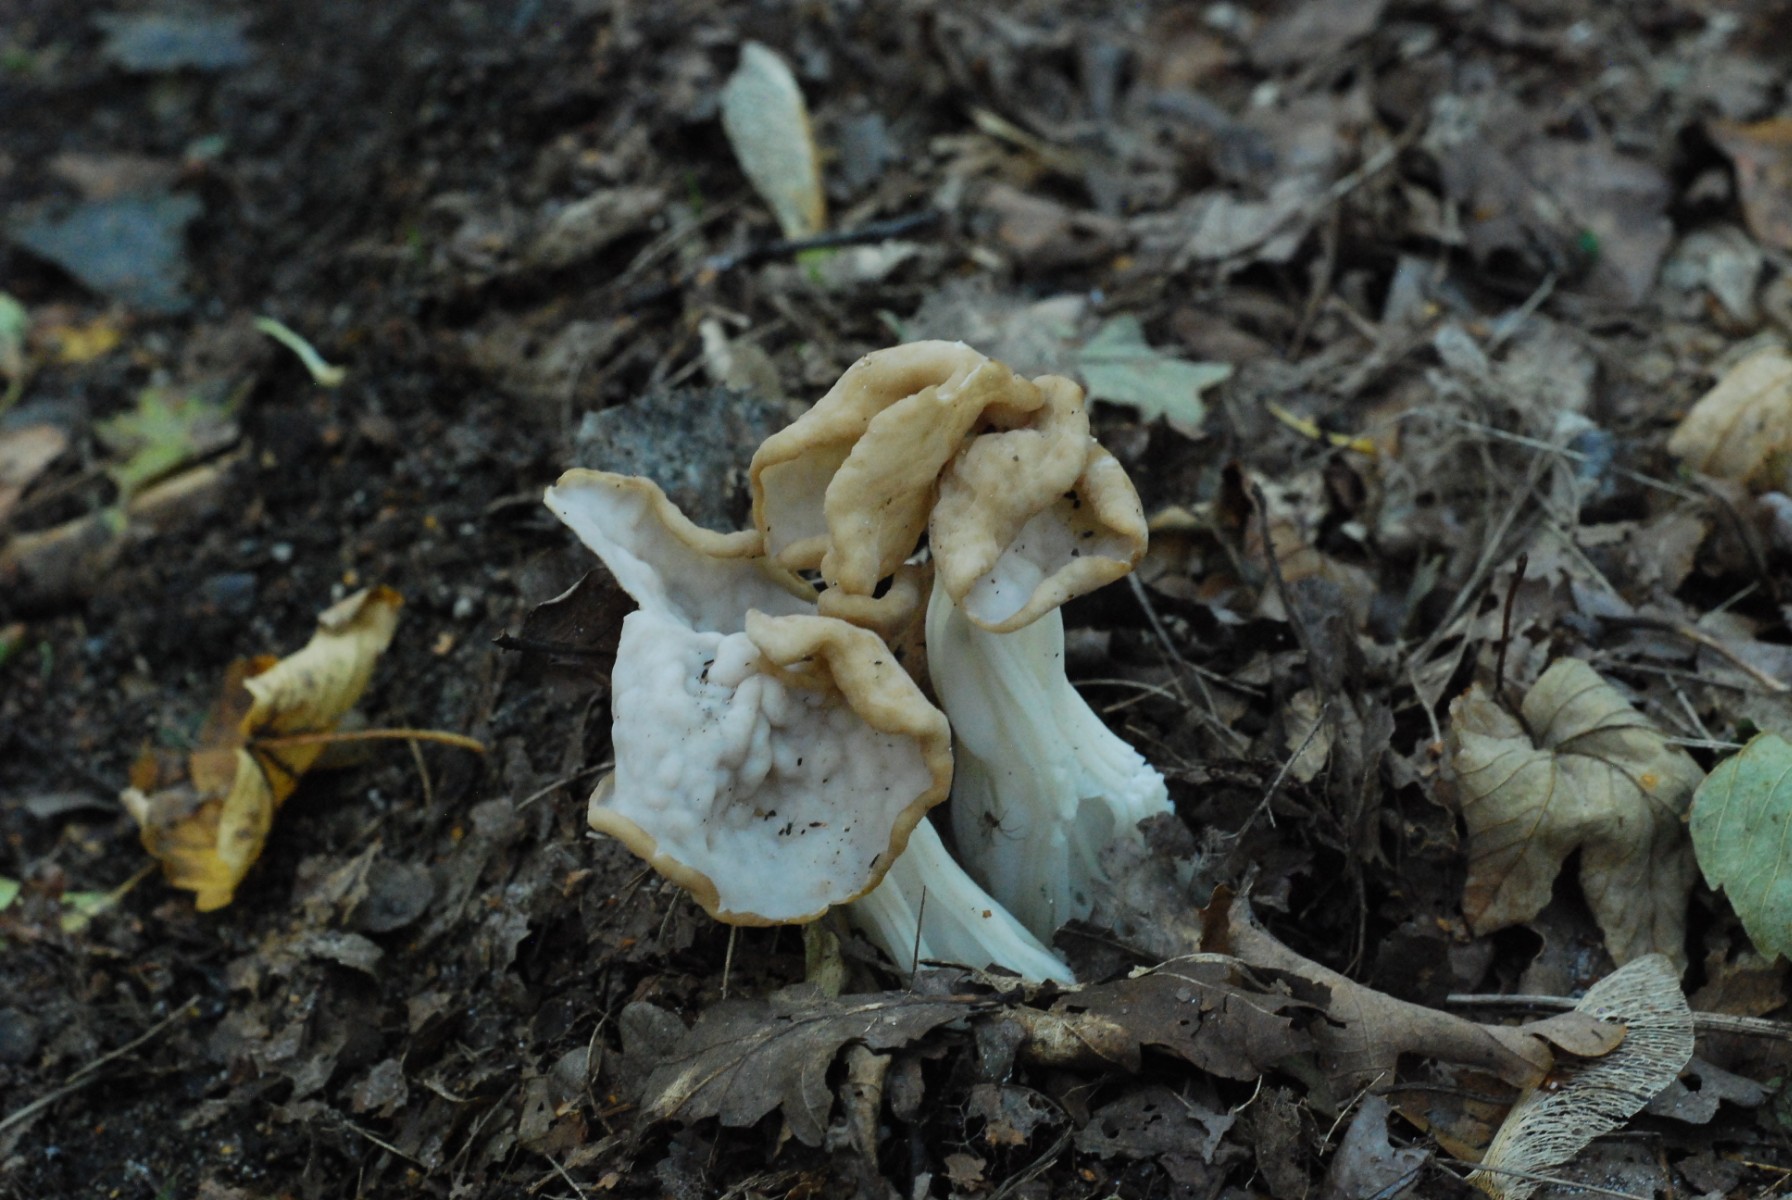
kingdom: Fungi
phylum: Ascomycota
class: Pezizomycetes
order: Pezizales
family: Helvellaceae
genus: Helvella
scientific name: Helvella crispa
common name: kruset foldhat
